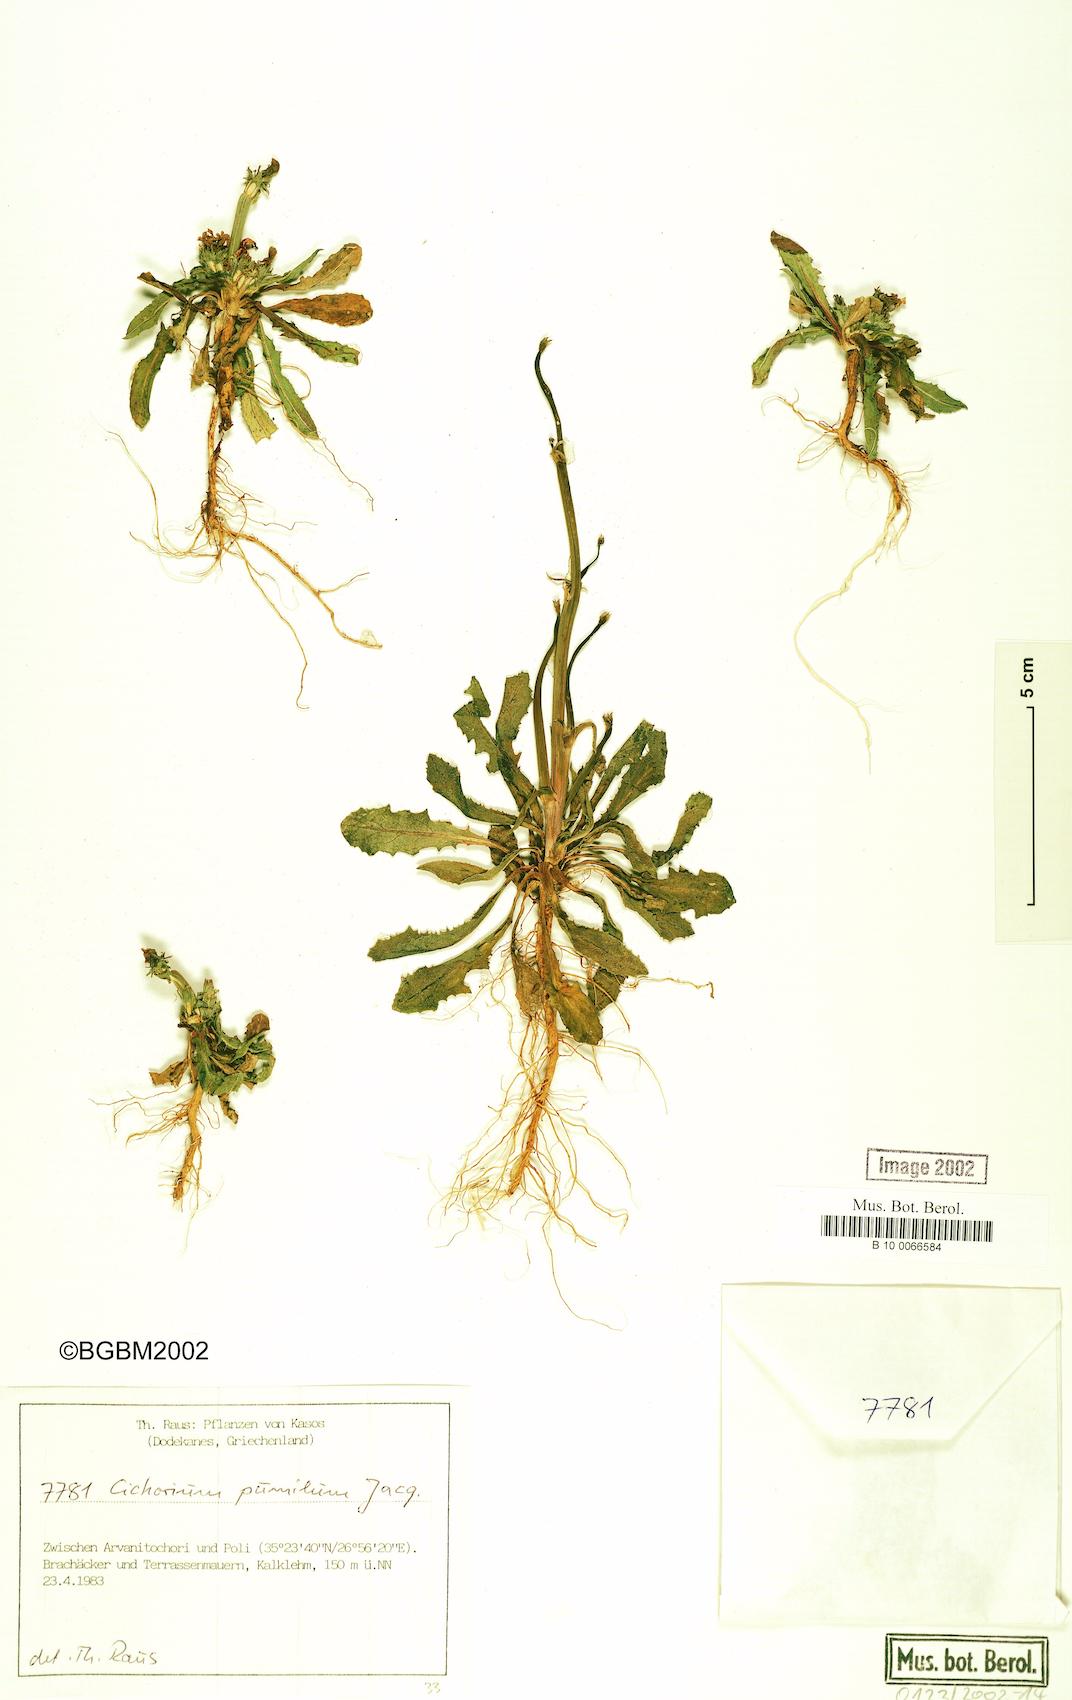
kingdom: Plantae
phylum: Tracheophyta
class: Magnoliopsida
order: Asterales
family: Asteraceae
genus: Cichorium
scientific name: Cichorium pumilum
